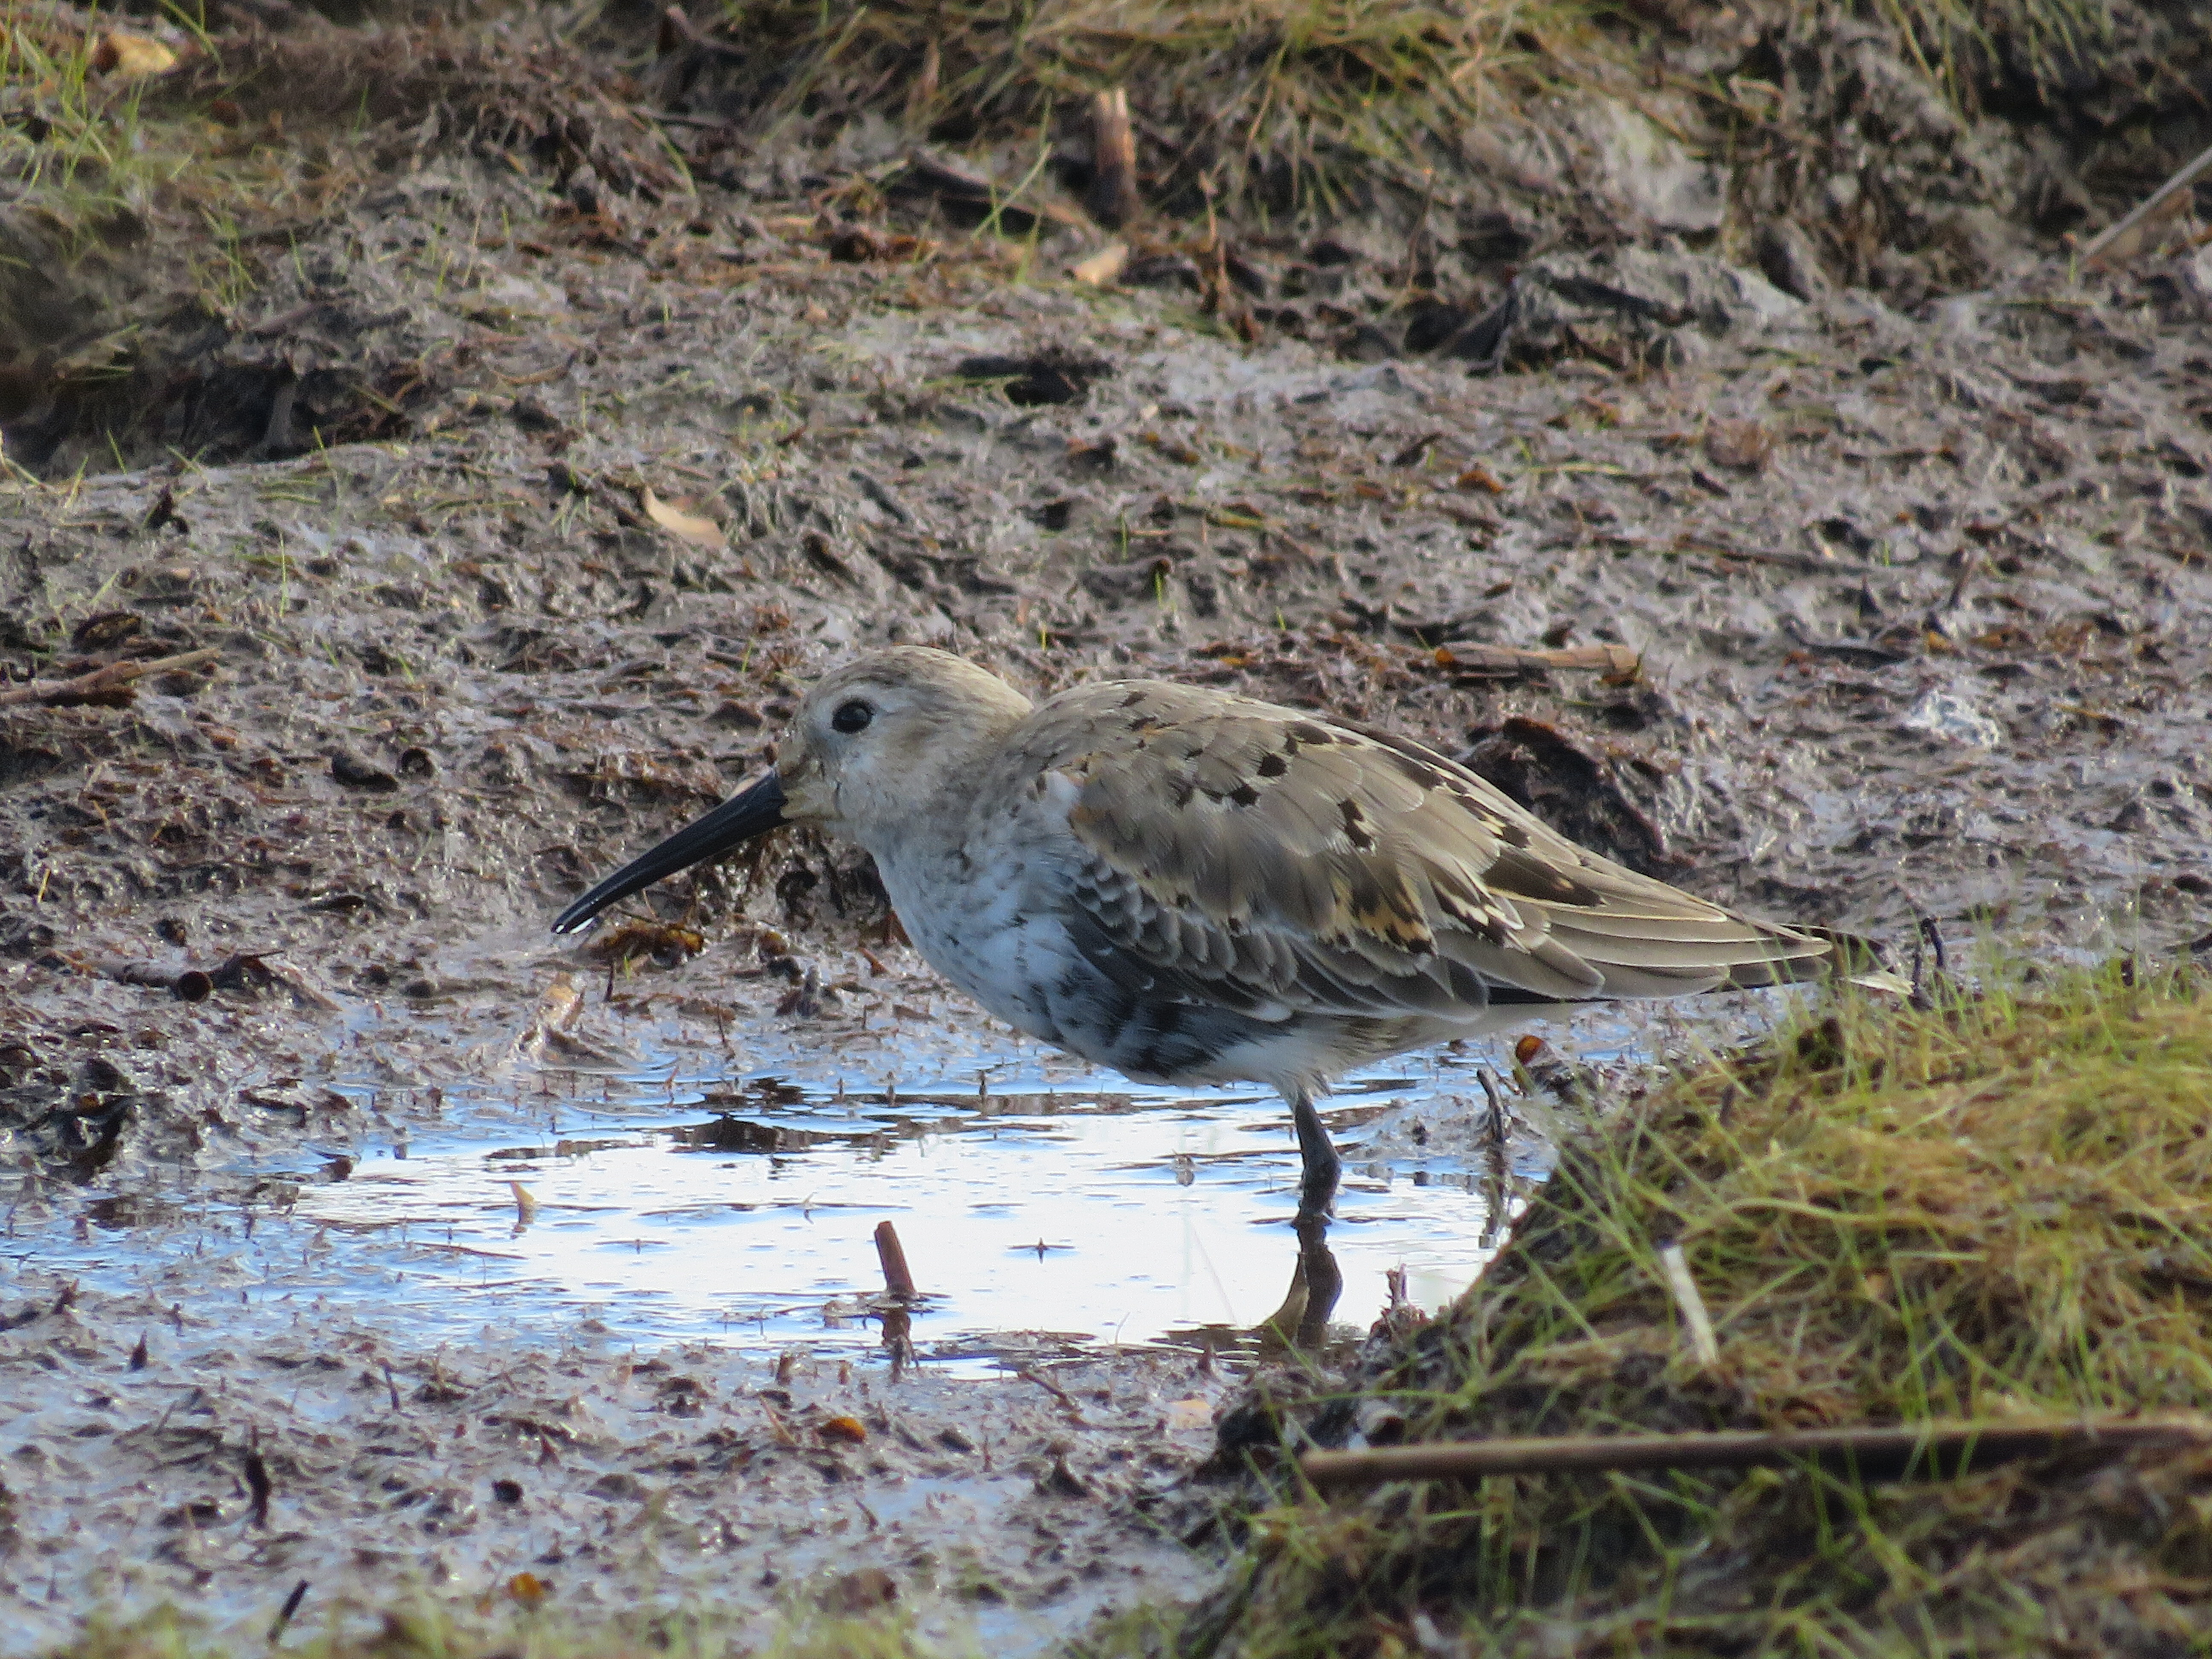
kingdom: Animalia
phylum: Chordata
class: Aves
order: Charadriiformes
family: Scolopacidae
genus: Calidris
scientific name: Calidris alpina
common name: Dunlin
